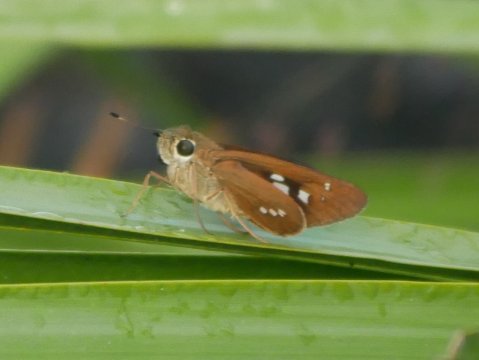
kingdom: Animalia
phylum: Arthropoda
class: Insecta
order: Lepidoptera
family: Hesperiidae
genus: Calpodes
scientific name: Calpodes ethlius
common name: Brazilian Skipper
